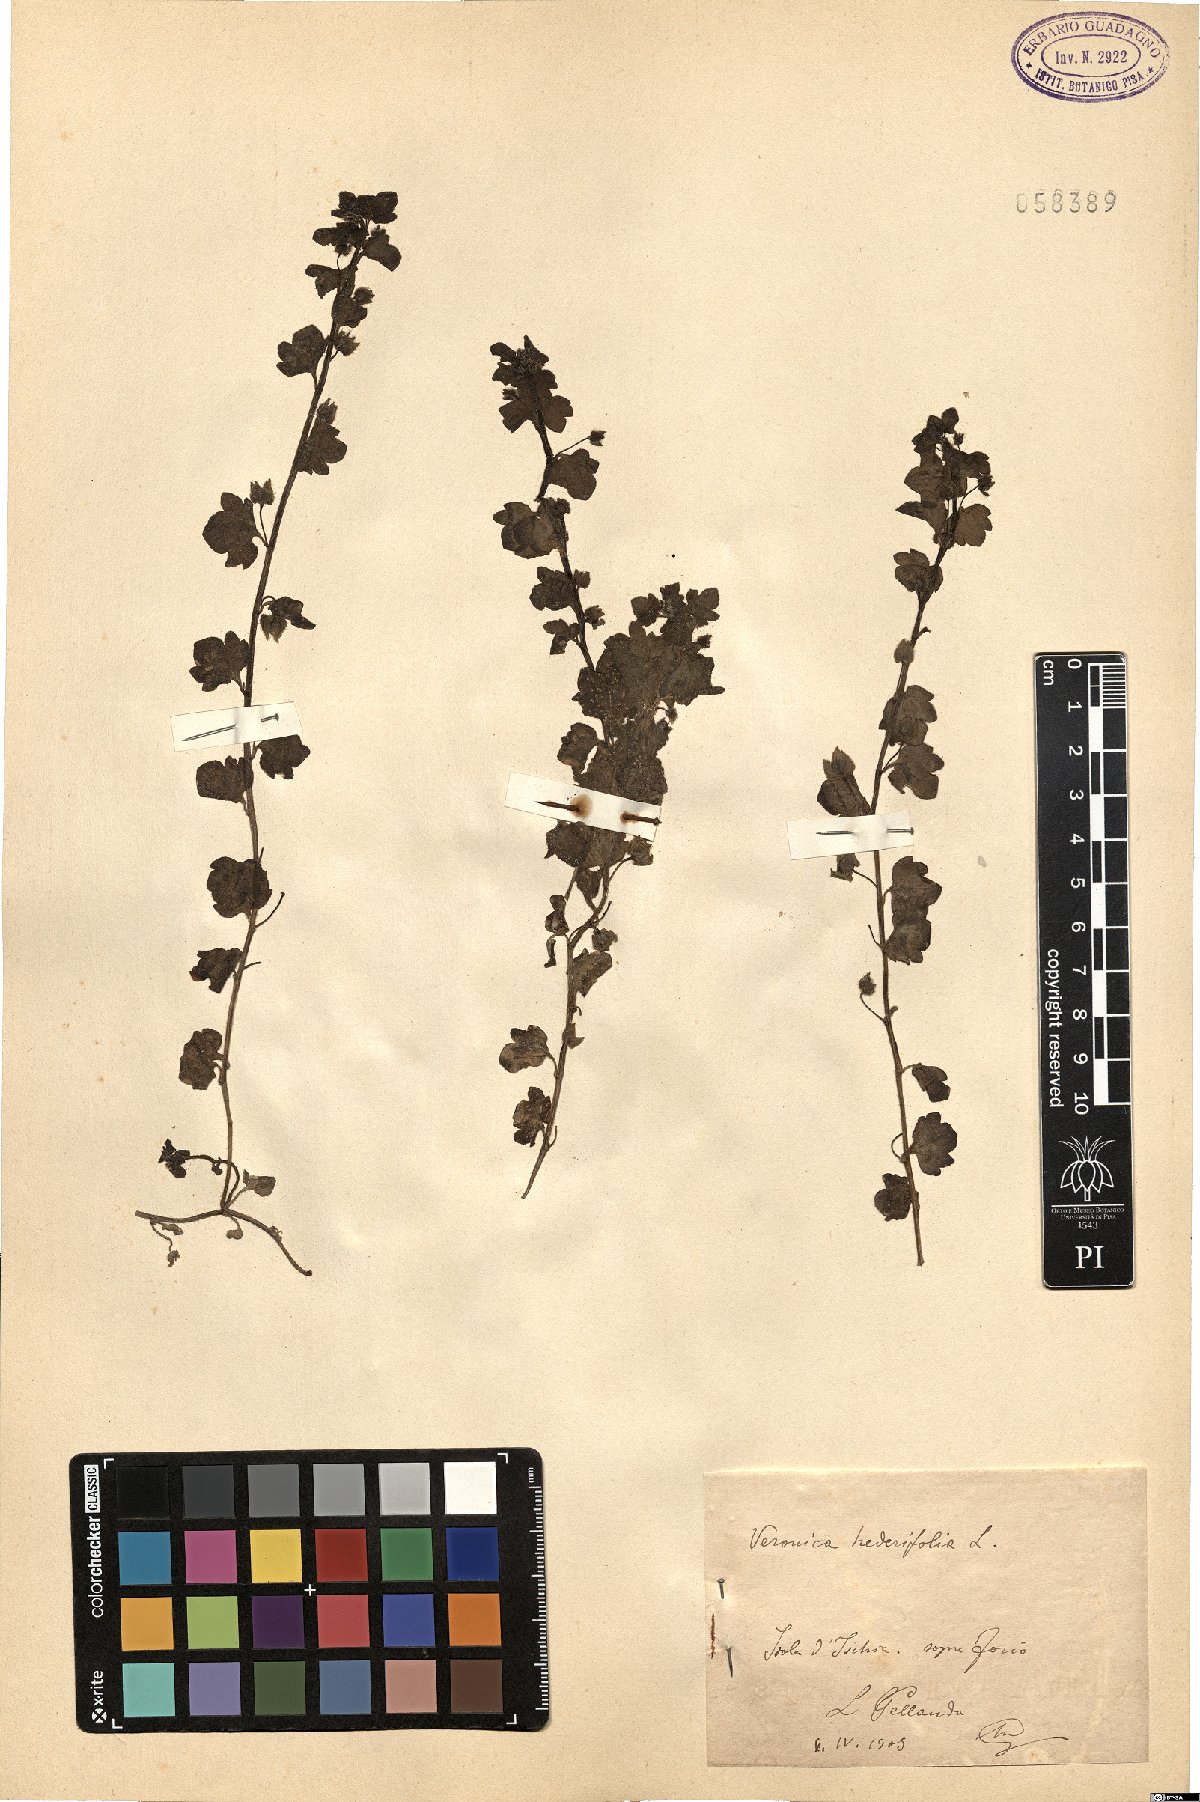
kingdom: Plantae
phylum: Tracheophyta
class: Magnoliopsida
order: Lamiales
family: Plantaginaceae
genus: Veronica
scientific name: Veronica hederifolia
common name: Ivy-leaved speedwell
